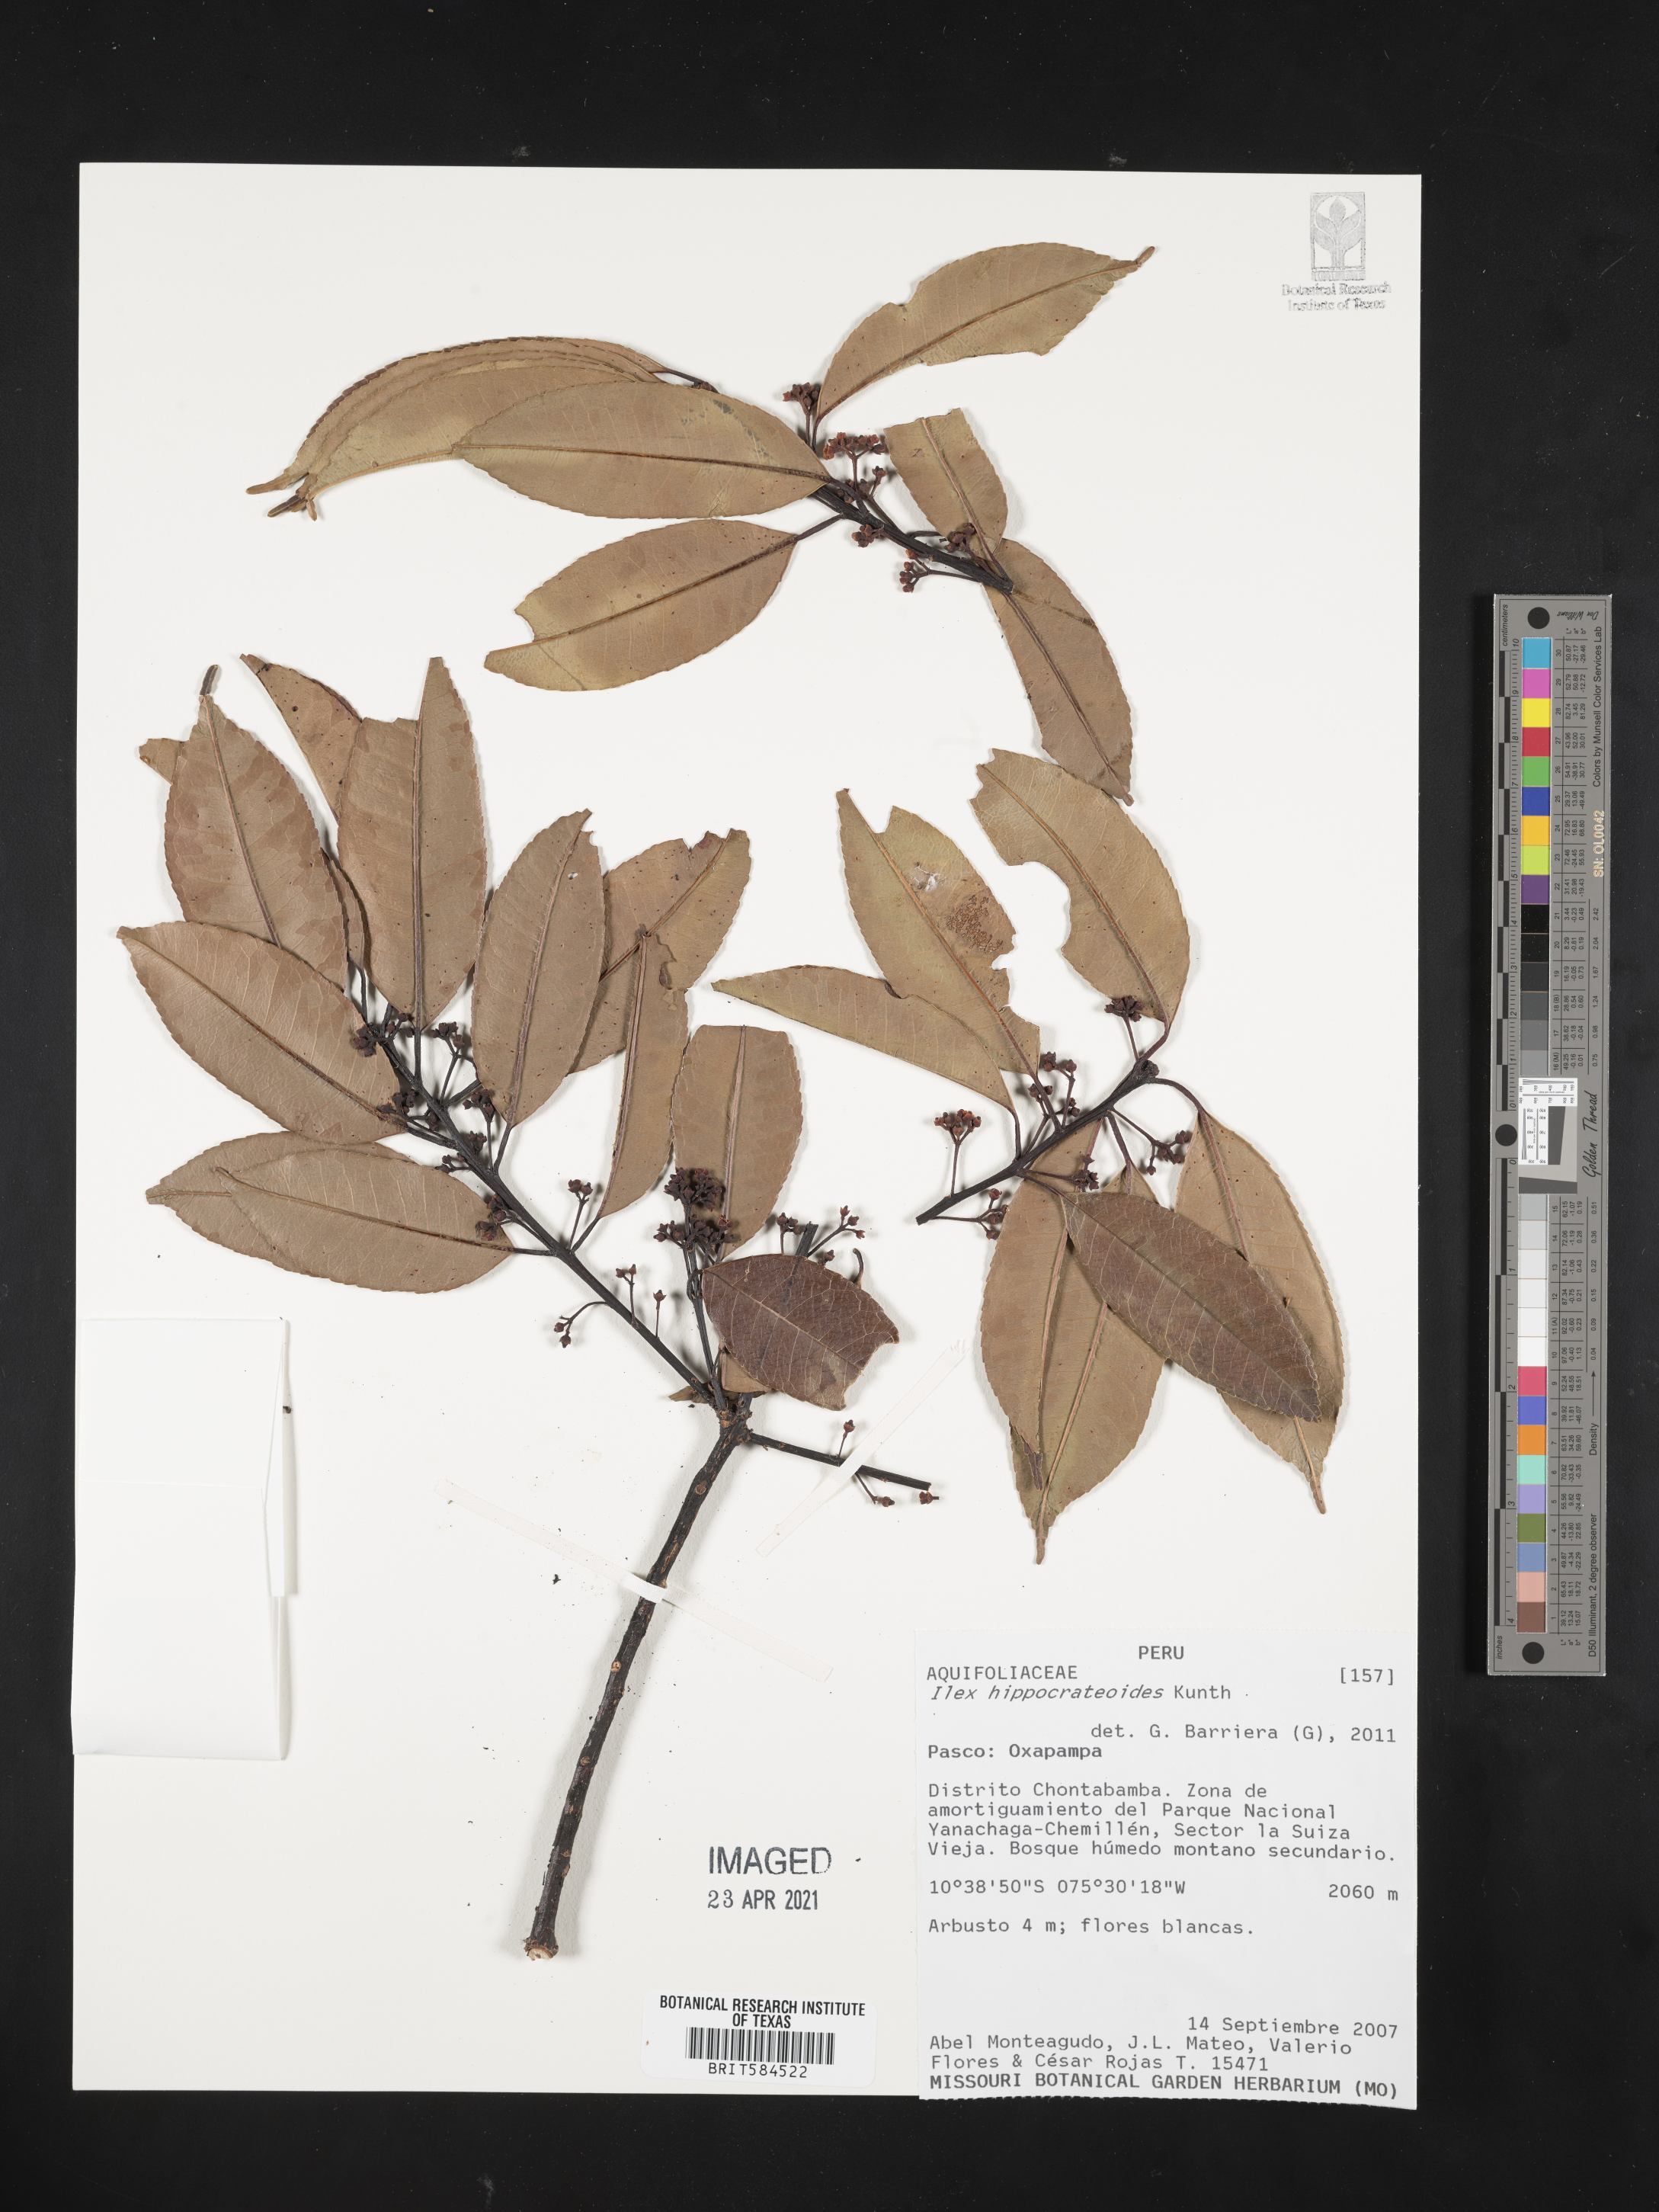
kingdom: Plantae
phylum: Tracheophyta
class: Magnoliopsida
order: Aquifoliales
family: Aquifoliaceae
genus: Ilex
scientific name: Ilex hippocrateoides
